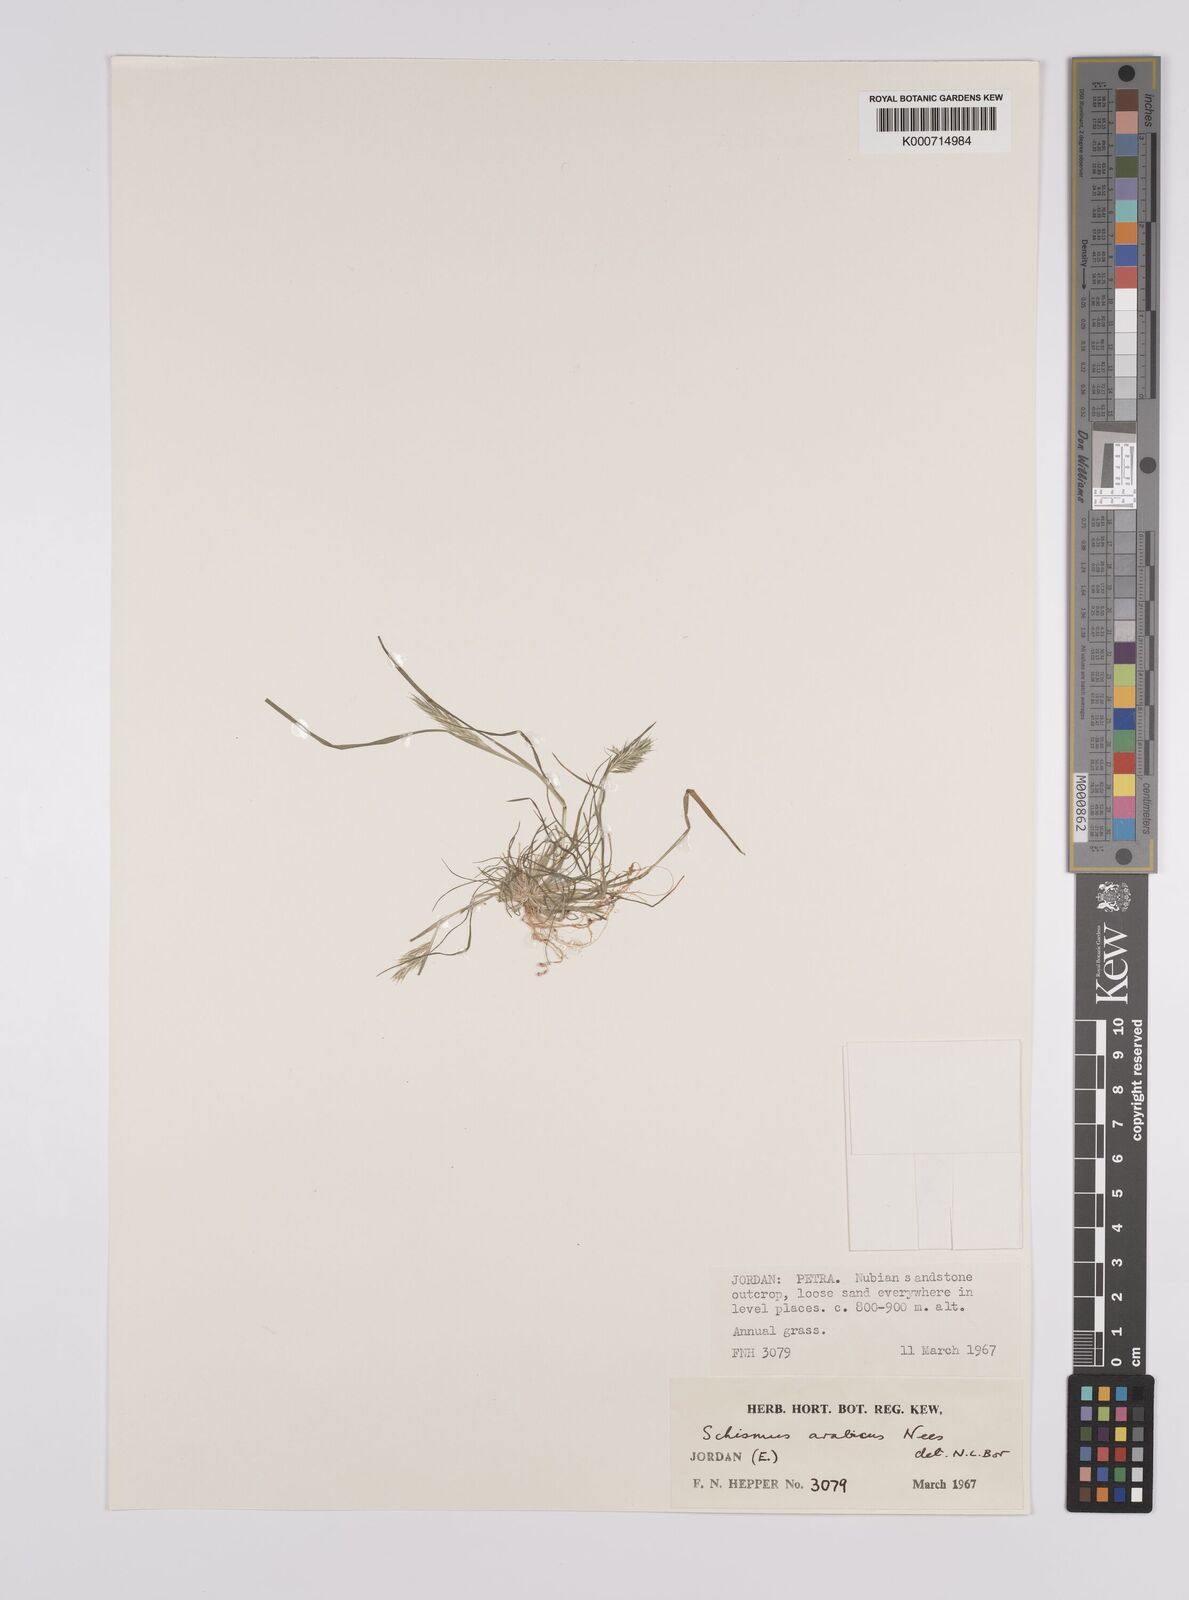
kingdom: Plantae
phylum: Tracheophyta
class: Liliopsida
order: Poales
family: Poaceae
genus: Schismus
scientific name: Schismus arabicus
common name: Arabian schismus
